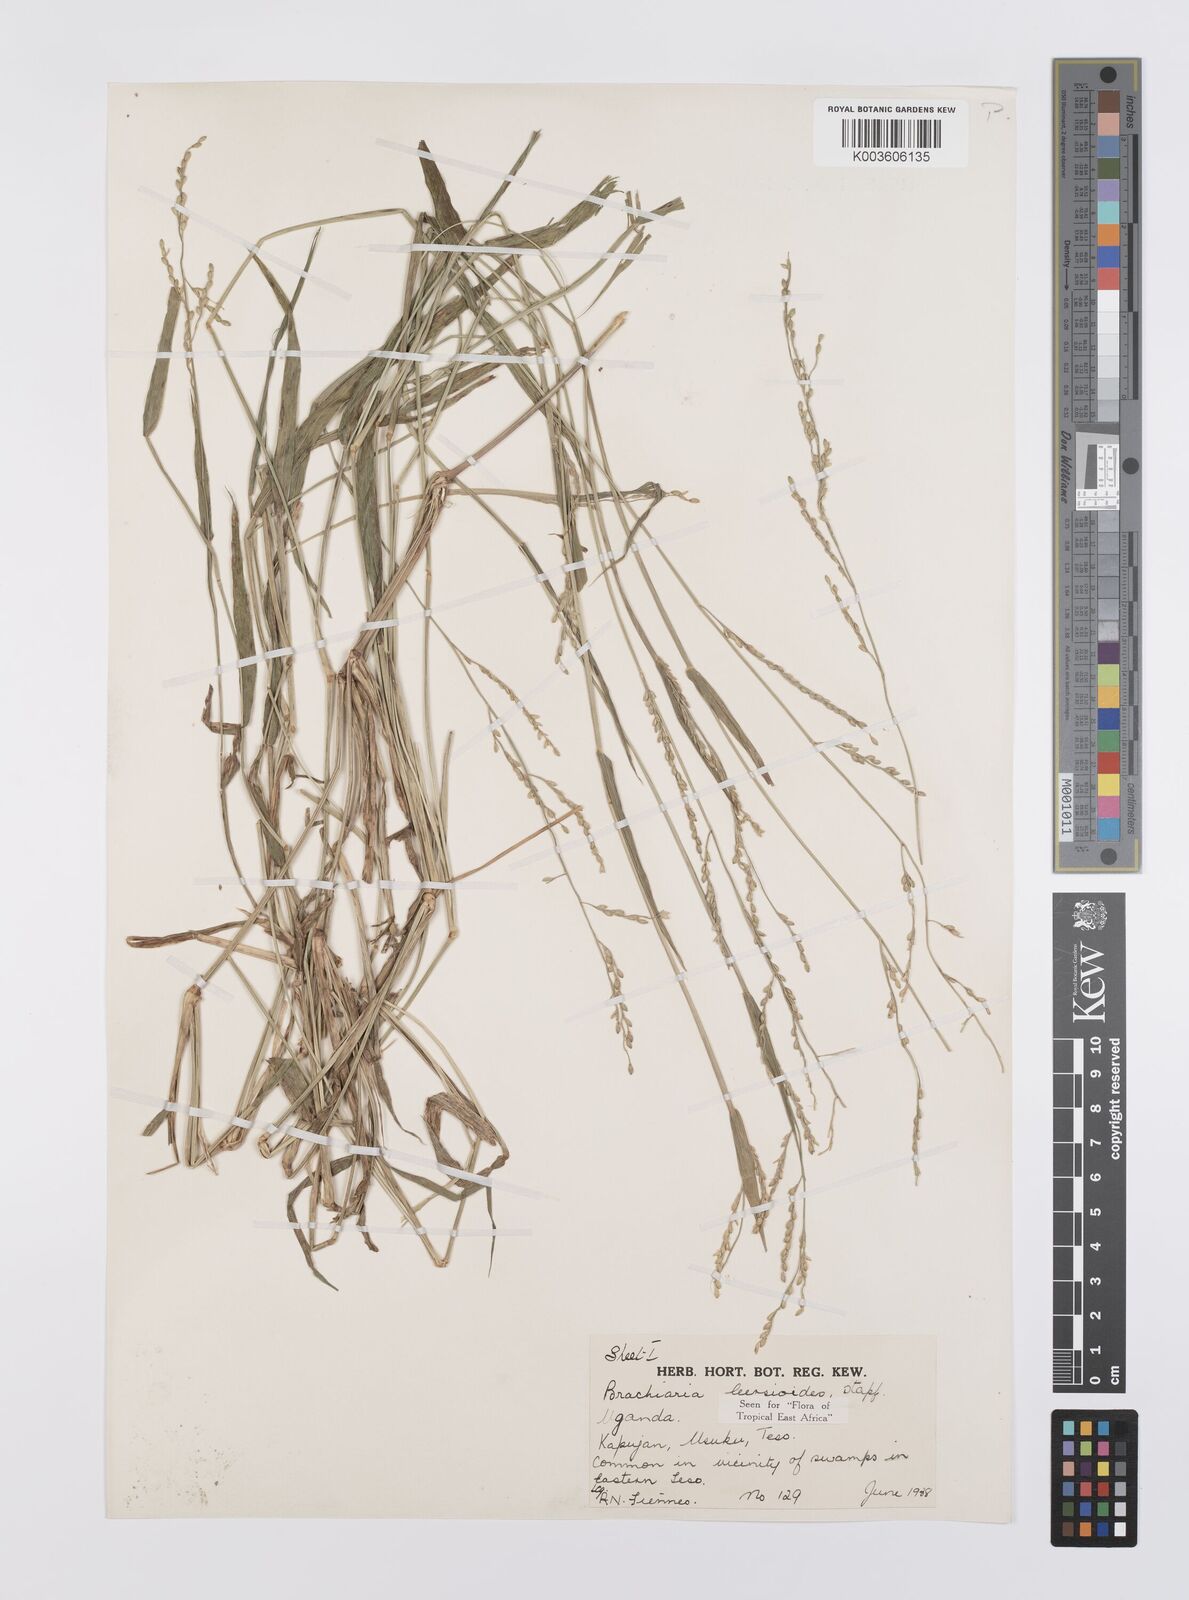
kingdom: Plantae
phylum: Tracheophyta
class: Liliopsida
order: Poales
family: Poaceae
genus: Urochloa
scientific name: Urochloa leersioides
